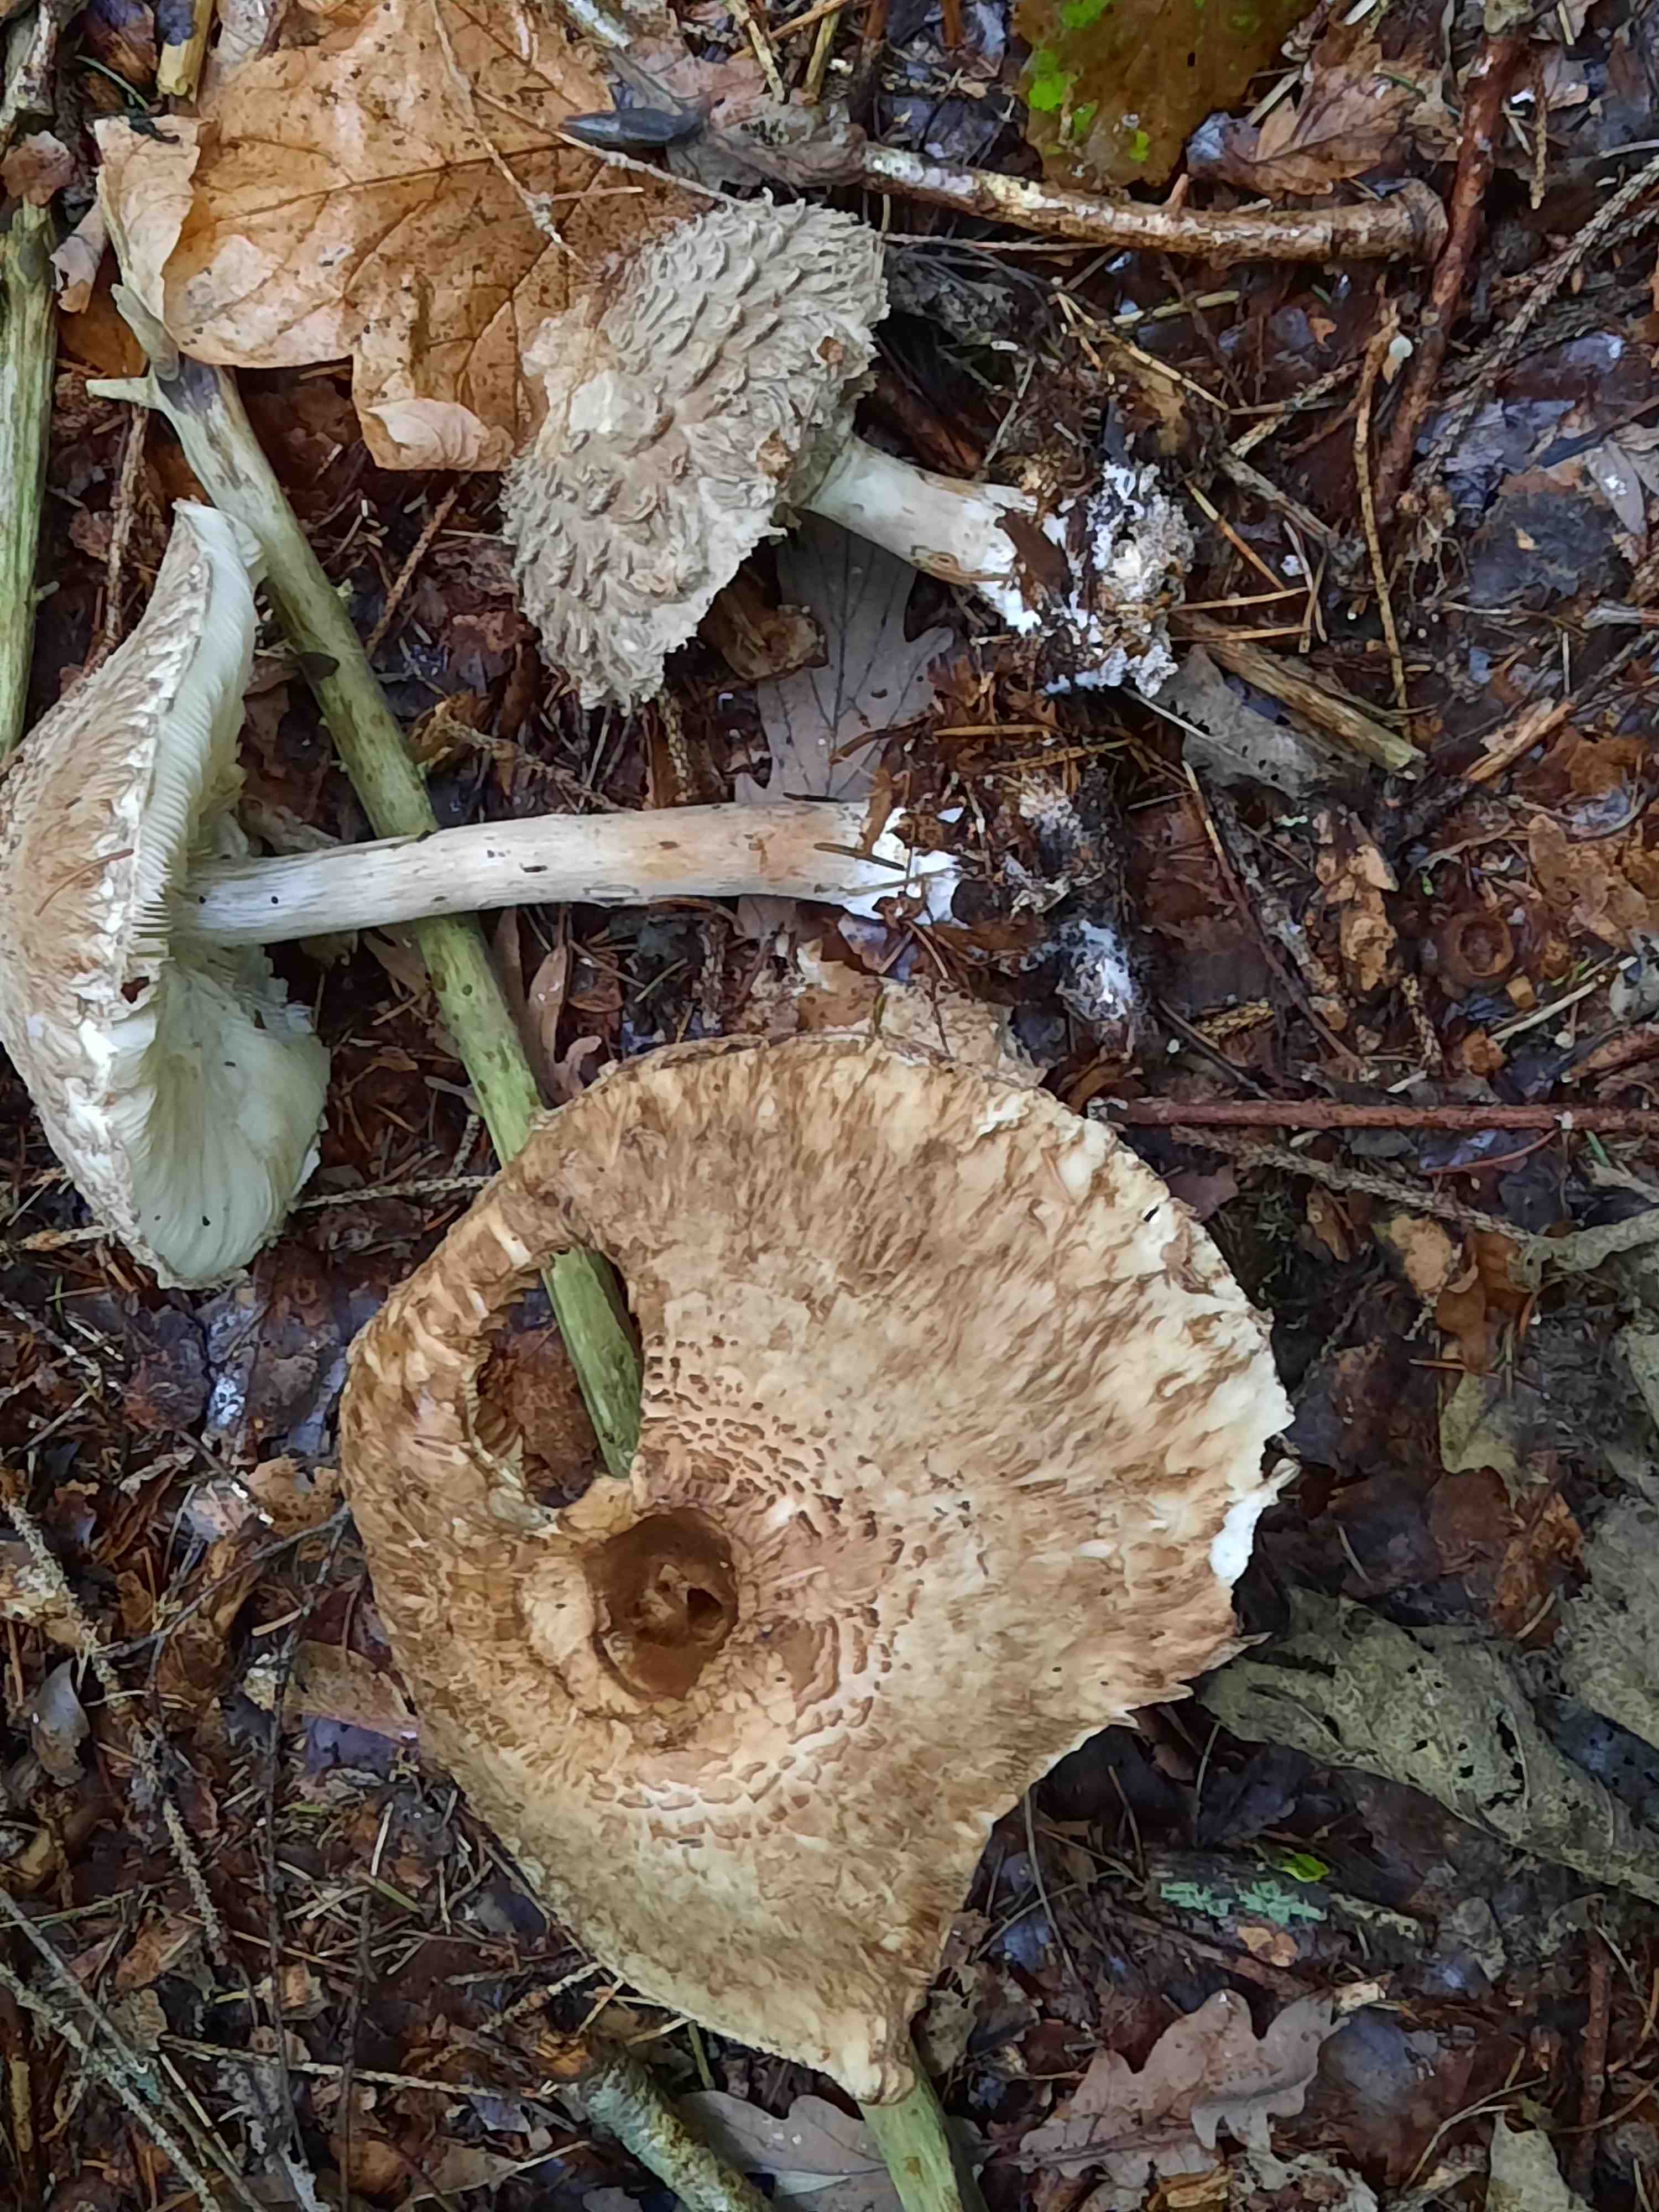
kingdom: Fungi
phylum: Basidiomycota
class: Agaricomycetes
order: Agaricales
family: Agaricaceae
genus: Chlorophyllum
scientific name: Chlorophyllum olivieri
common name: almindelig rabarberhat
